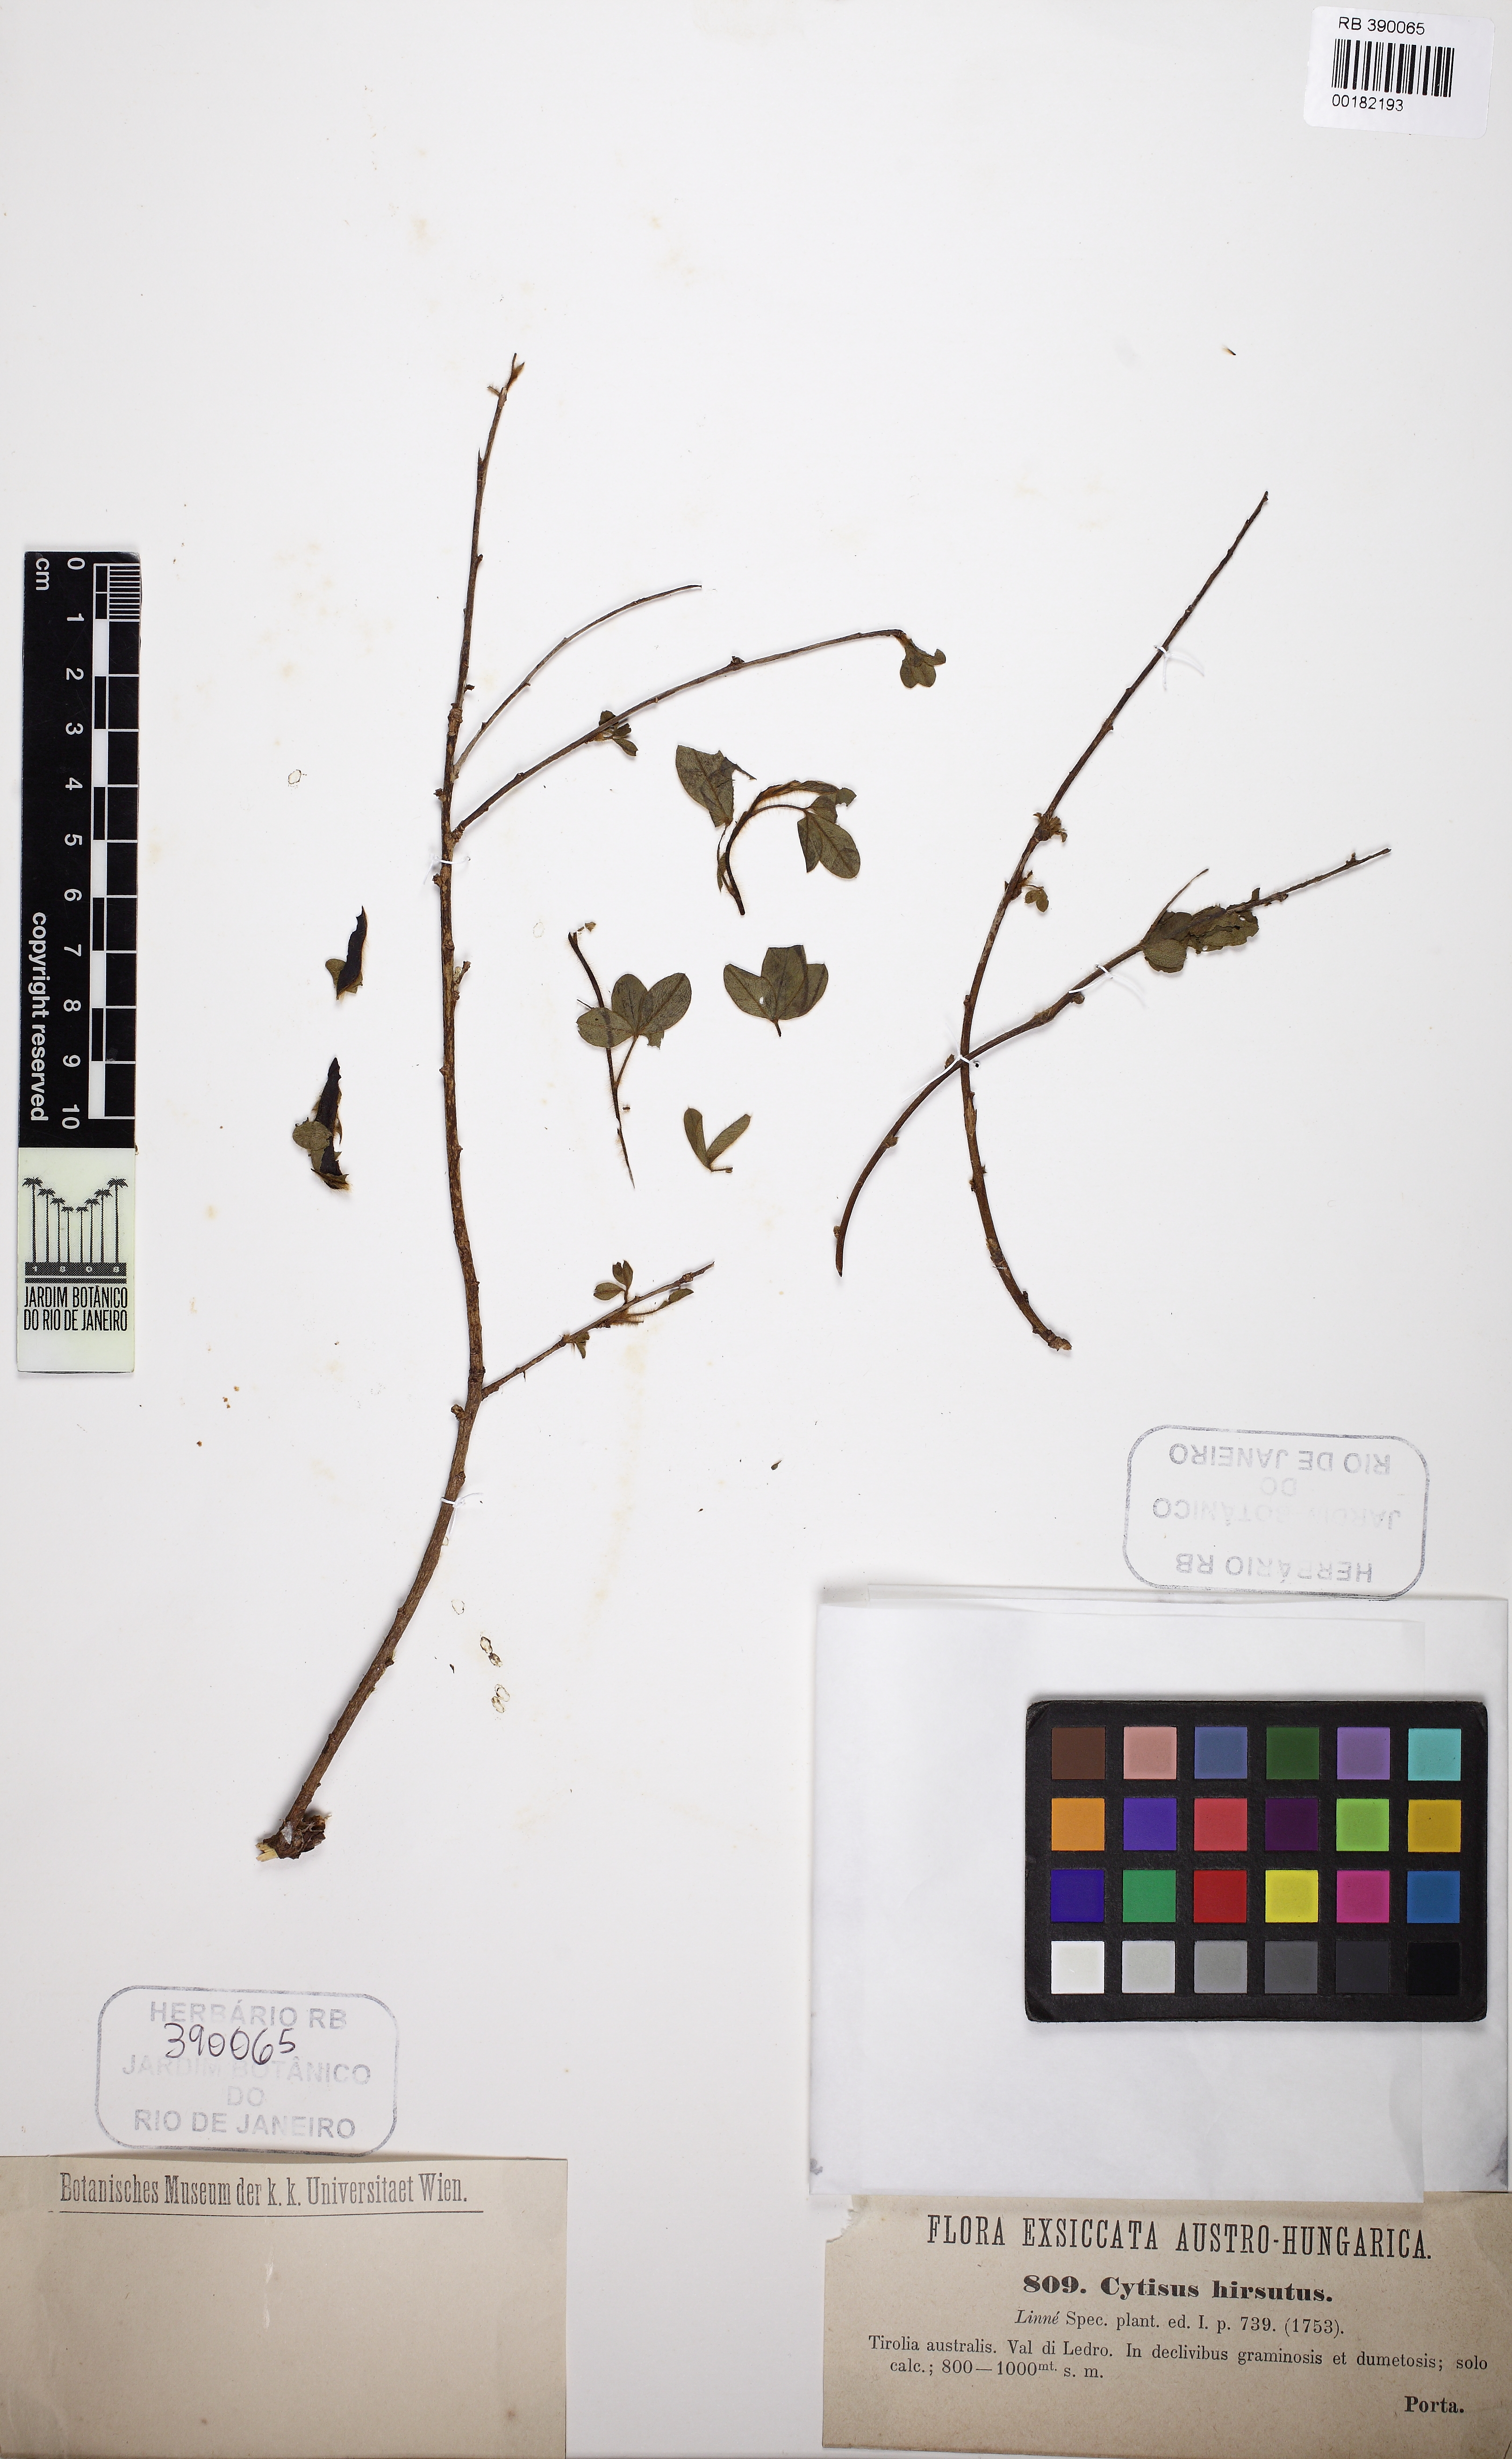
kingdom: Plantae
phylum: Tracheophyta
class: Magnoliopsida
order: Fabales
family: Fabaceae
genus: Chamaecytisus
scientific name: Chamaecytisus hirsutus
